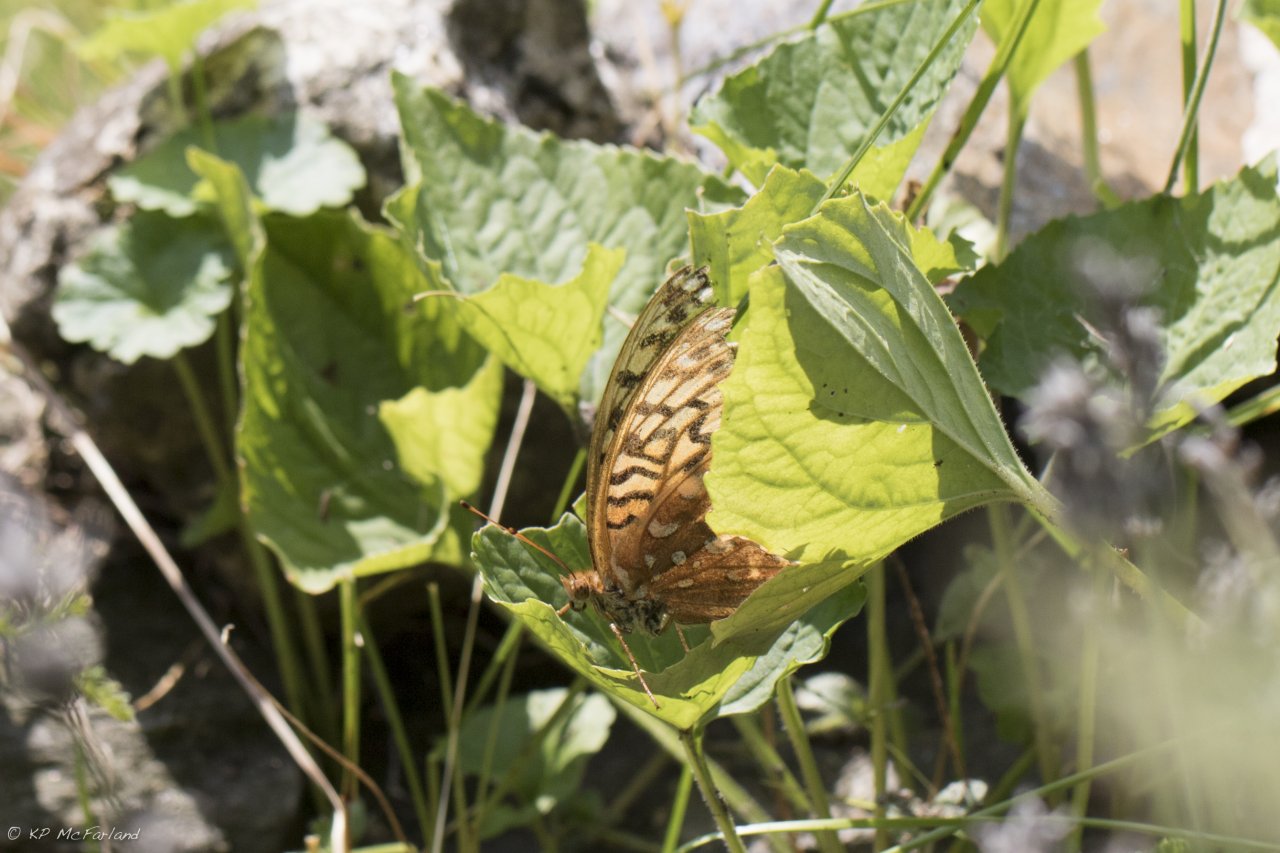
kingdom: Animalia
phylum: Arthropoda
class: Insecta
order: Lepidoptera
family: Nymphalidae
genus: Speyeria
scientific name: Speyeria cybele
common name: Great Spangled Fritillary
